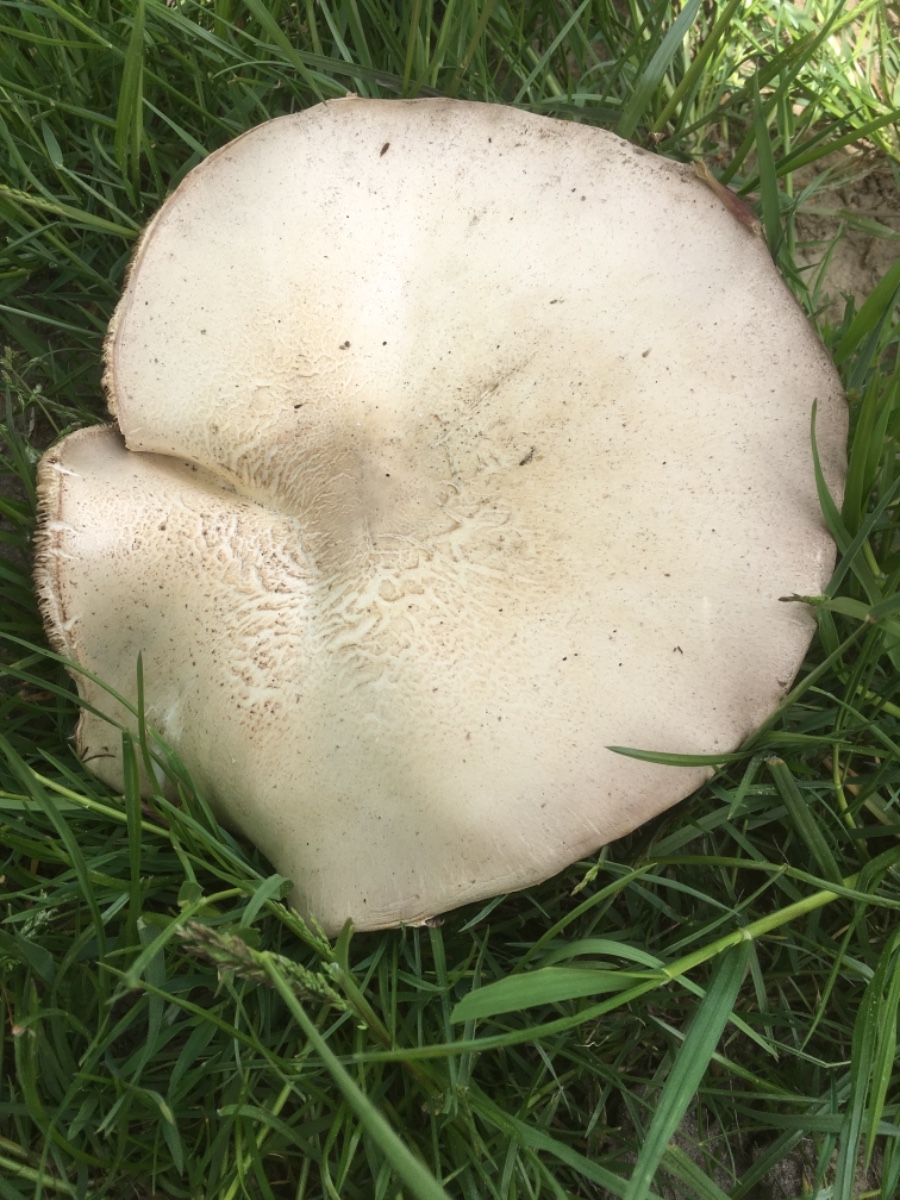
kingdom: Fungi
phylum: Basidiomycota
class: Agaricomycetes
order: Agaricales
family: Agaricaceae
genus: Agaricus
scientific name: Agaricus arvensis
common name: ager-champignon
